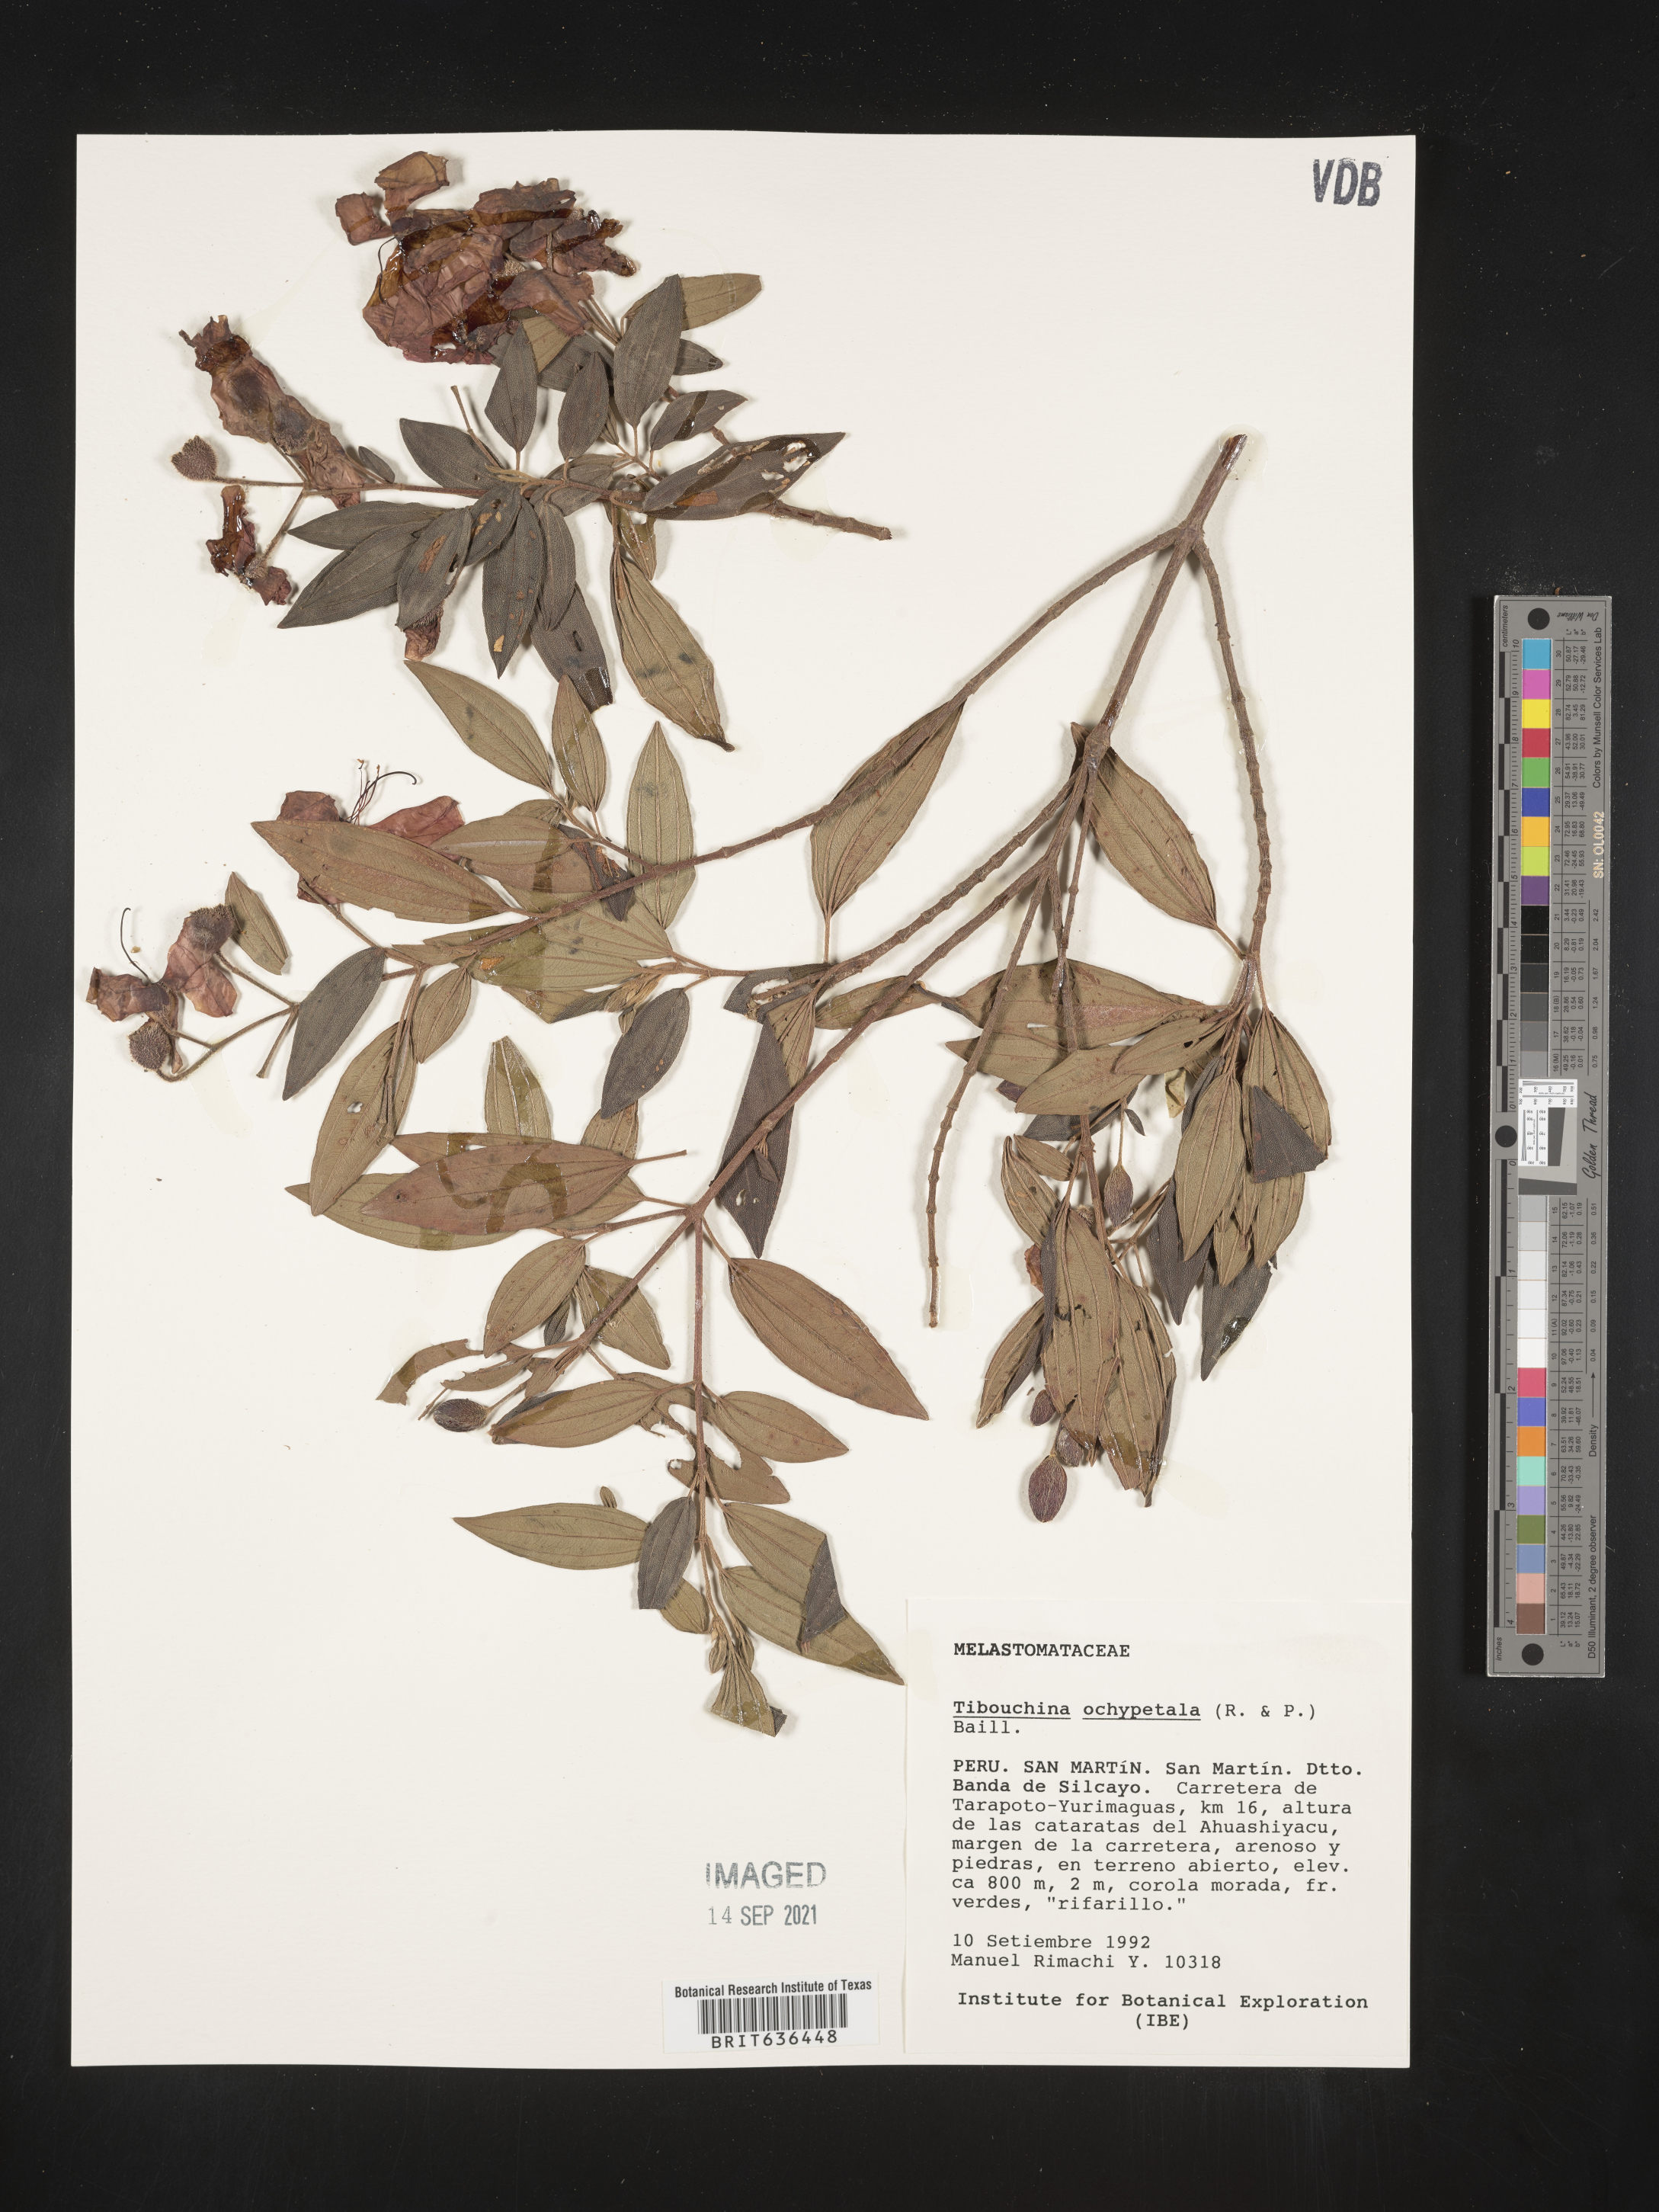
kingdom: Plantae
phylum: Tracheophyta
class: Magnoliopsida
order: Myrtales
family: Melastomataceae
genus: Tibouchina
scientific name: Tibouchina
